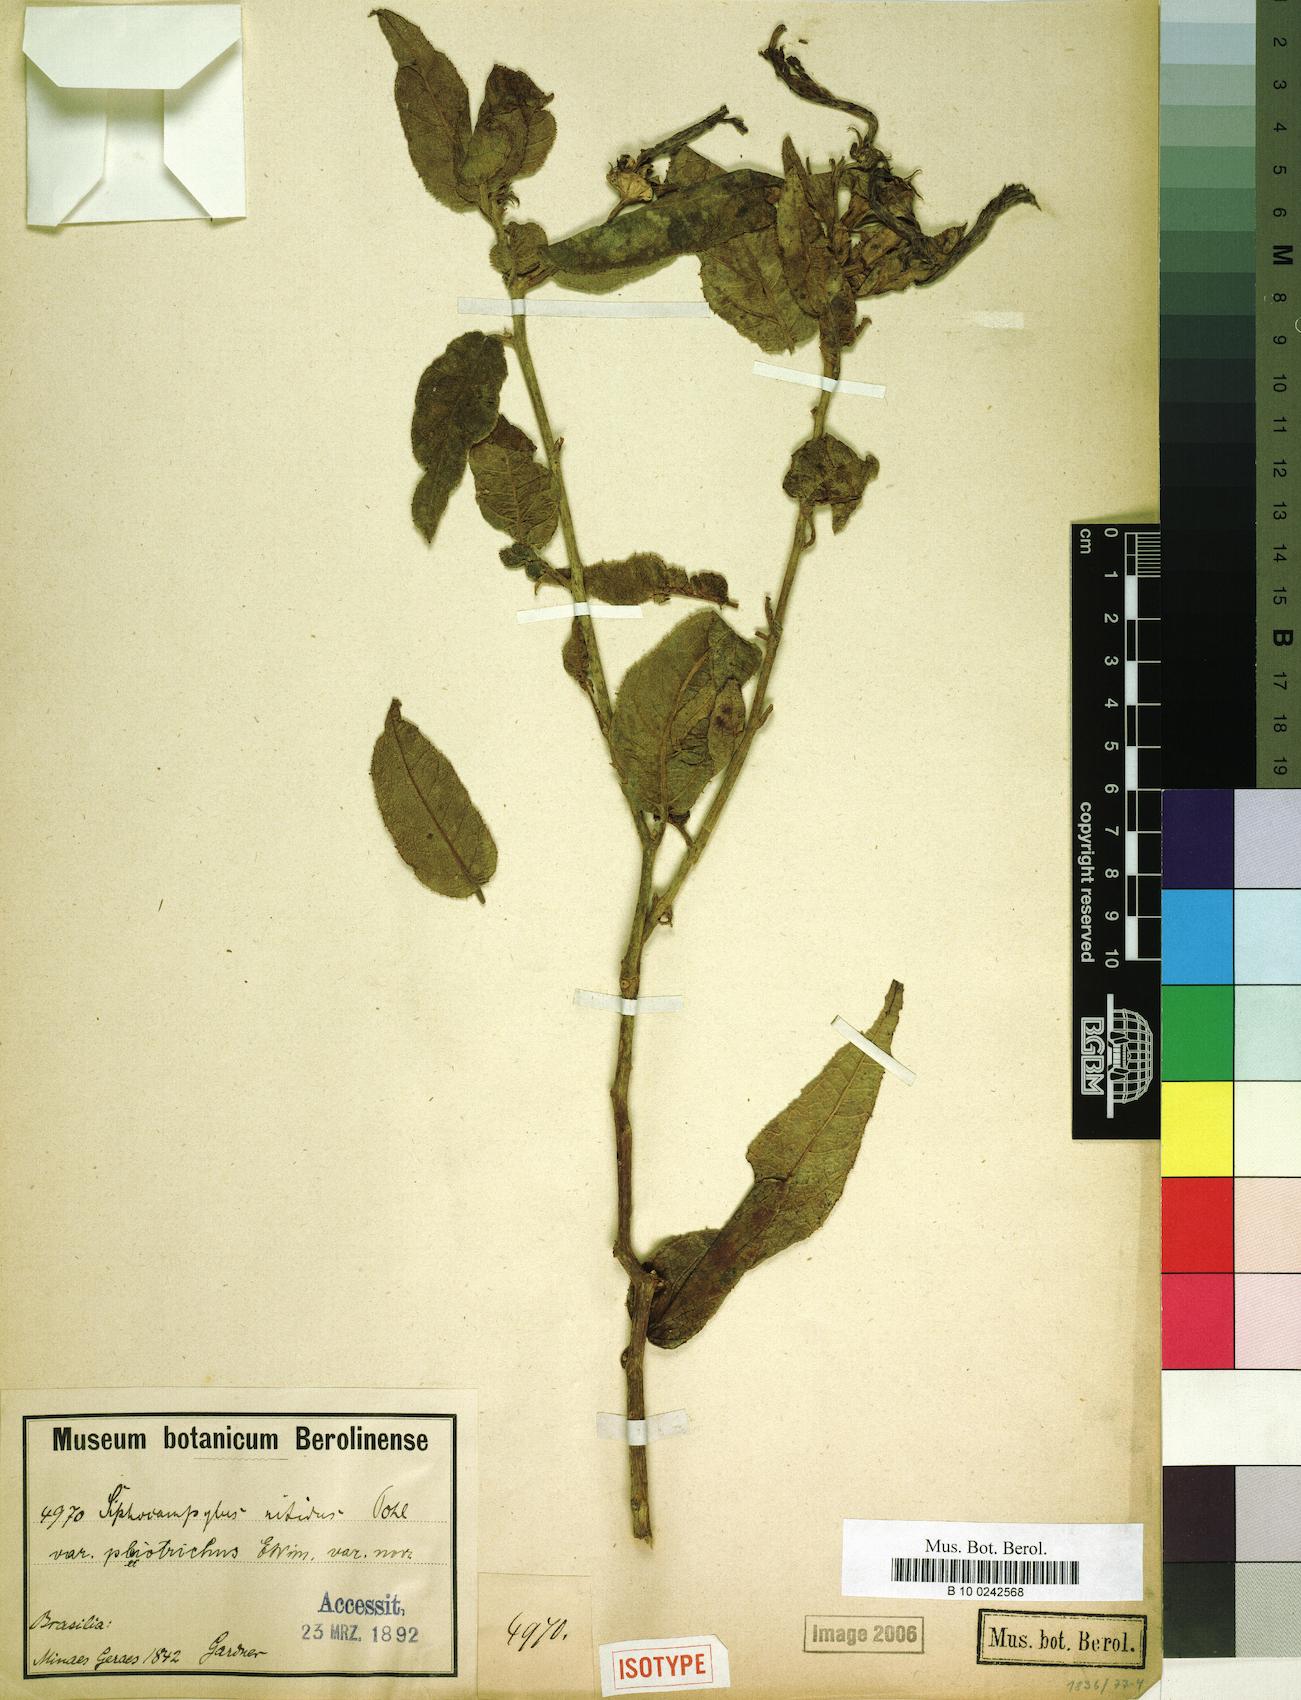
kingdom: Plantae
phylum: Tracheophyta
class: Magnoliopsida
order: Asterales
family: Campanulaceae
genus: Siphocampylus
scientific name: Siphocampylus nitidus
